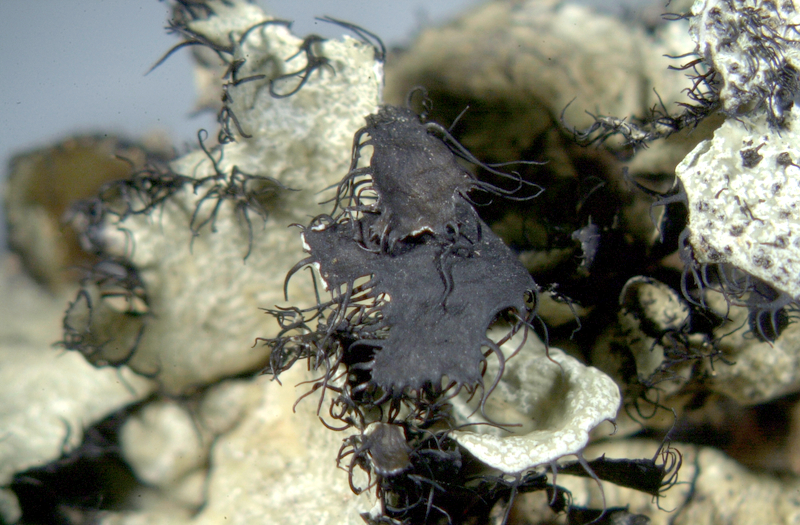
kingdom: Fungi
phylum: Ascomycota
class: Lecanoromycetes
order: Lecanorales
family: Parmeliaceae
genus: Xanthoparmelia
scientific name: Xanthoparmelia hottentotta
